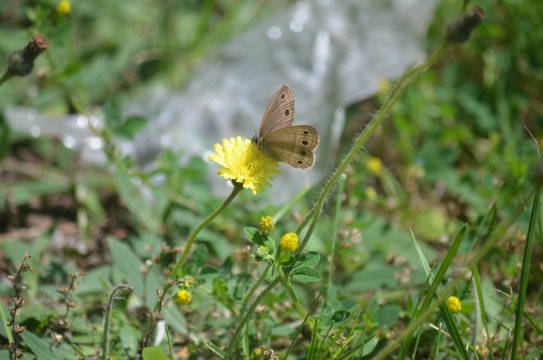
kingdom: Animalia
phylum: Arthropoda
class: Insecta
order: Lepidoptera
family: Nymphalidae
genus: Euptychia
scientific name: Euptychia cymela
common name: Little Wood Satyr
